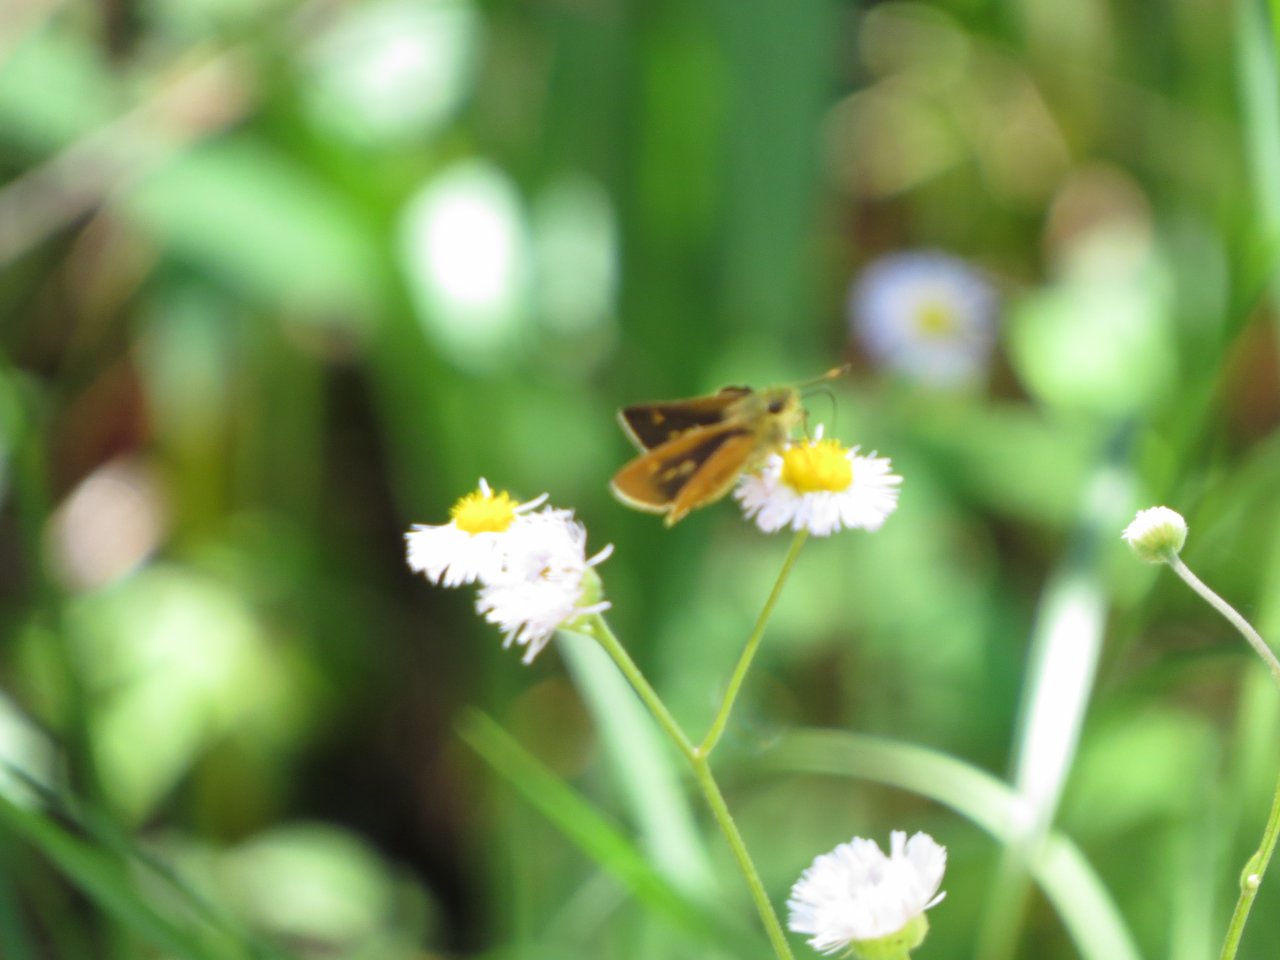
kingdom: Animalia
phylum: Arthropoda
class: Insecta
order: Lepidoptera
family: Hesperiidae
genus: Wallengrenia
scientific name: Wallengrenia otho
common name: Southern Broken-Dash
